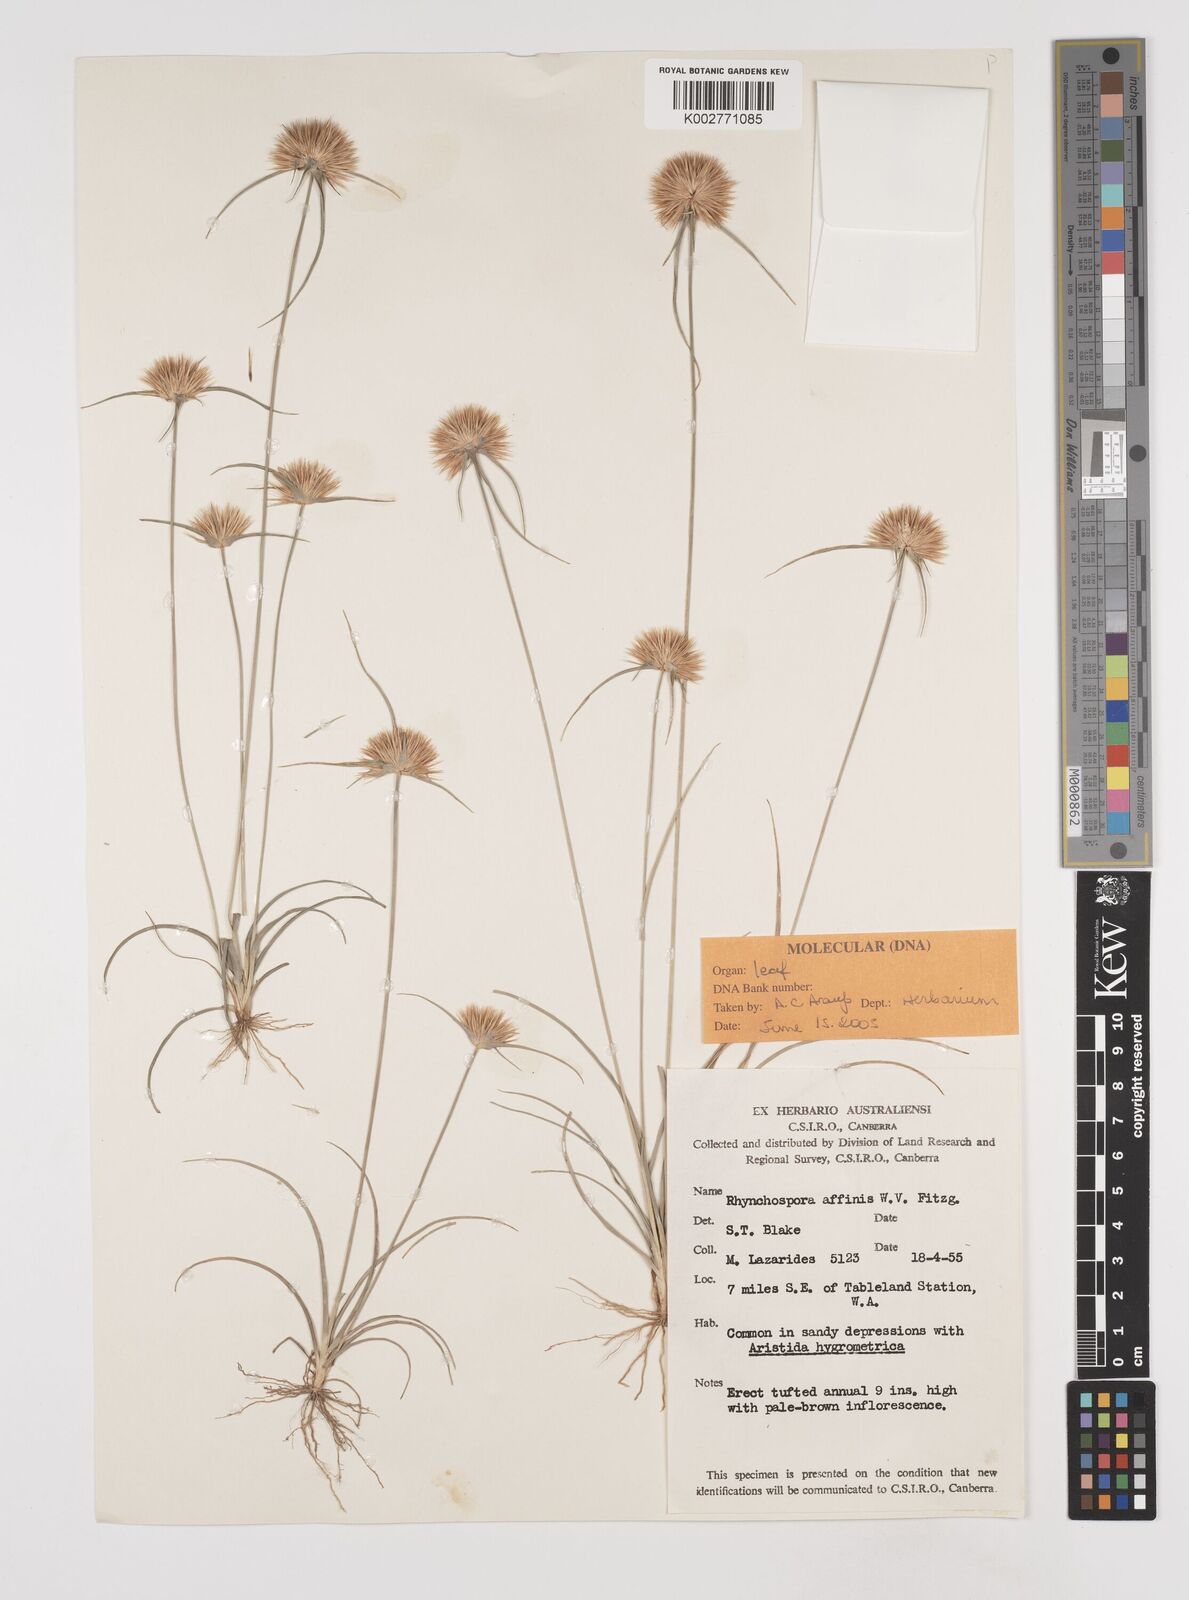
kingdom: Plantae
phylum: Tracheophyta
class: Liliopsida
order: Poales
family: Cyperaceae
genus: Rhynchospora
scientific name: Rhynchospora affinis
